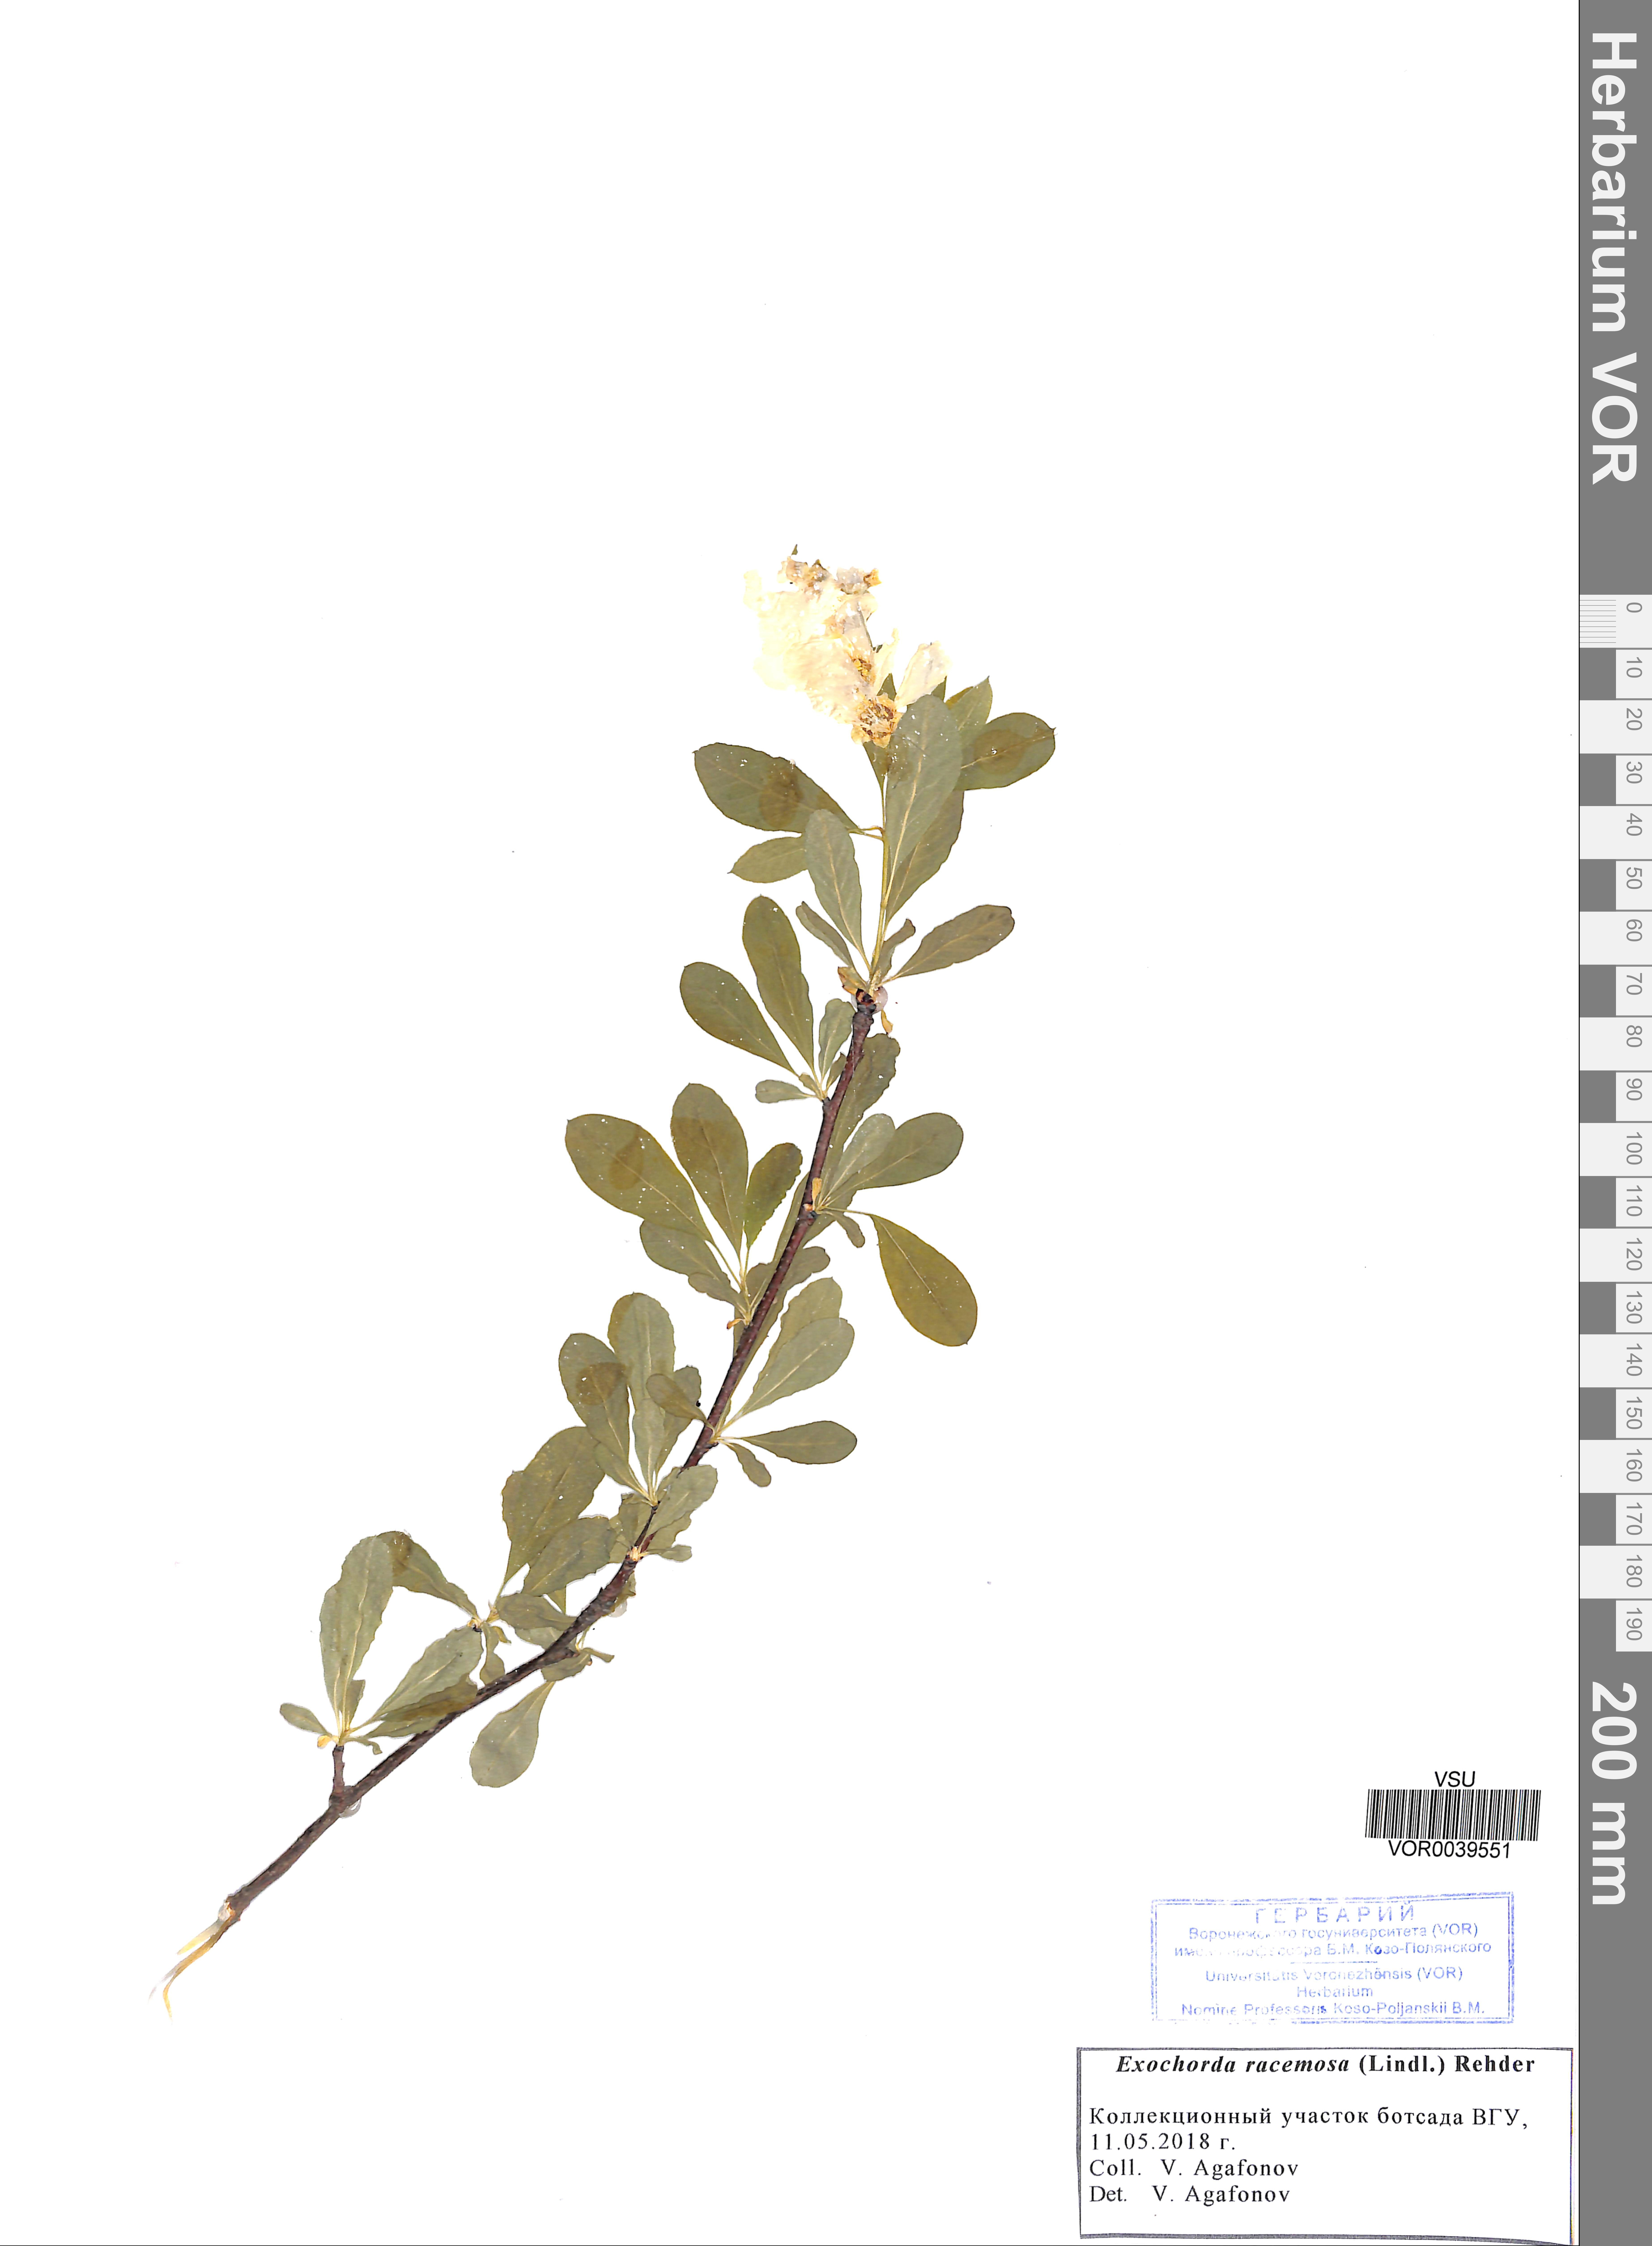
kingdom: Plantae
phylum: Tracheophyta
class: Magnoliopsida
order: Rosales
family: Rosaceae
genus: Exochorda
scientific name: Exochorda racemosa
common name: Common pearlbrush
